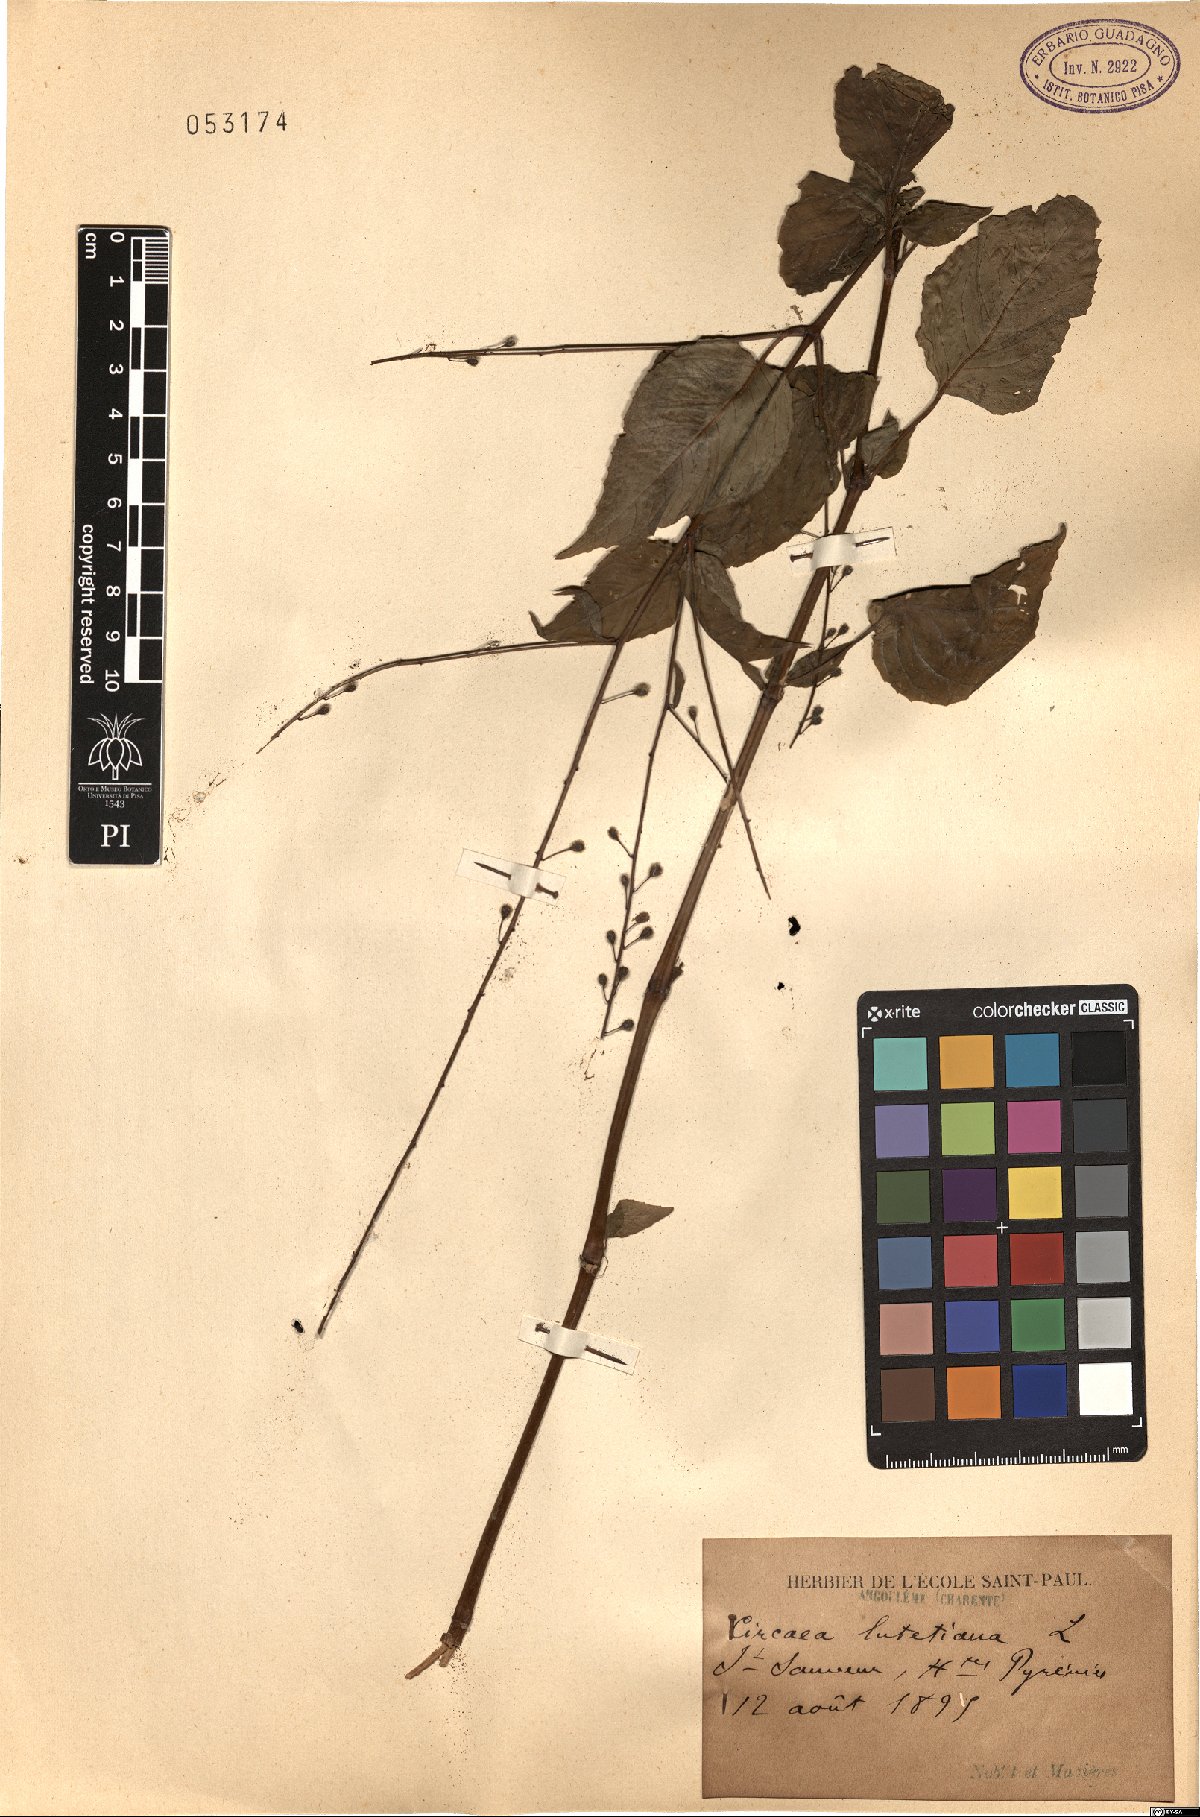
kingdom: Plantae
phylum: Tracheophyta
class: Magnoliopsida
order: Myrtales
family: Onagraceae
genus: Circaea
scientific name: Circaea lutetiana
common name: Enchanter's-nightshade
